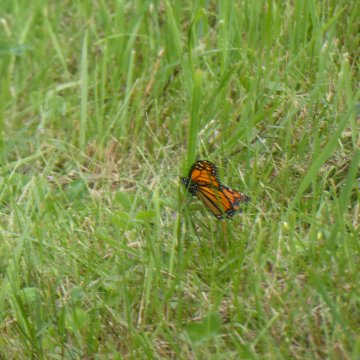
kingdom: Animalia
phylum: Arthropoda
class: Insecta
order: Lepidoptera
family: Nymphalidae
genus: Danaus
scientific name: Danaus plexippus
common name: Monarch
